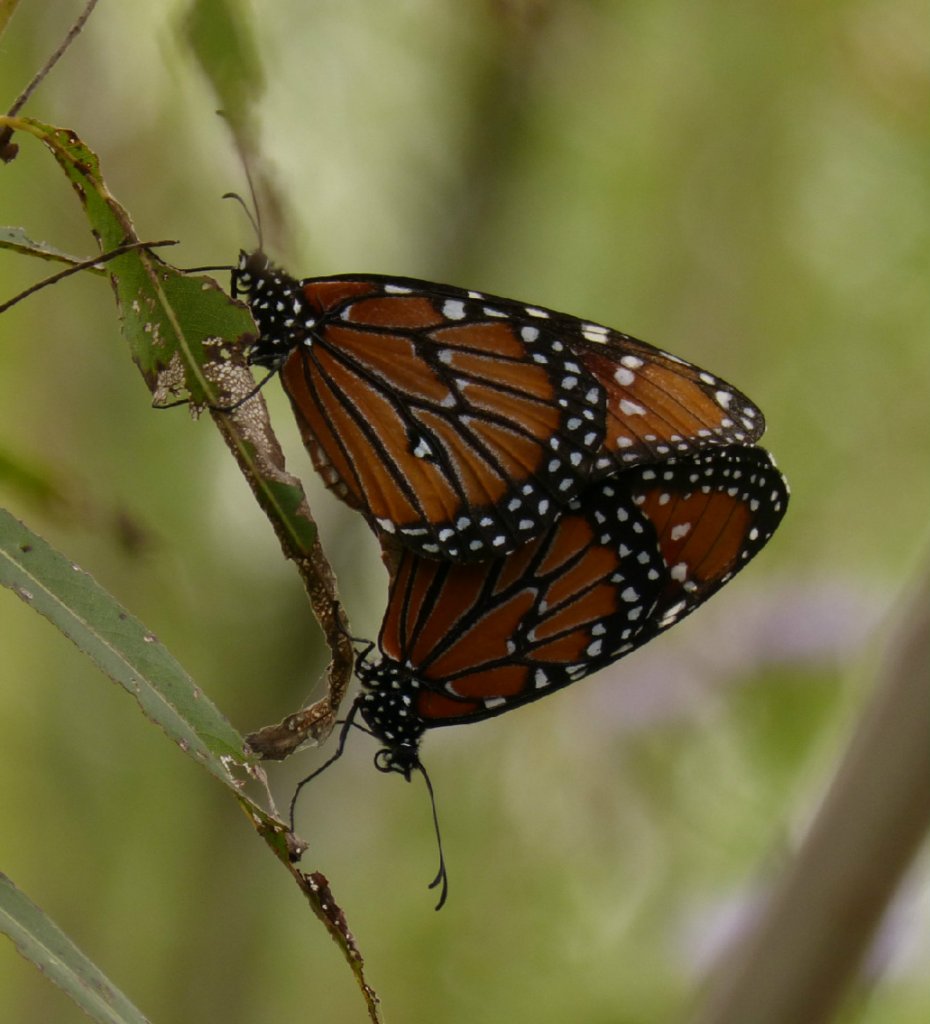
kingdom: Animalia
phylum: Arthropoda
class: Insecta
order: Lepidoptera
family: Nymphalidae
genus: Danaus
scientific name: Danaus gilippus
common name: Queen
